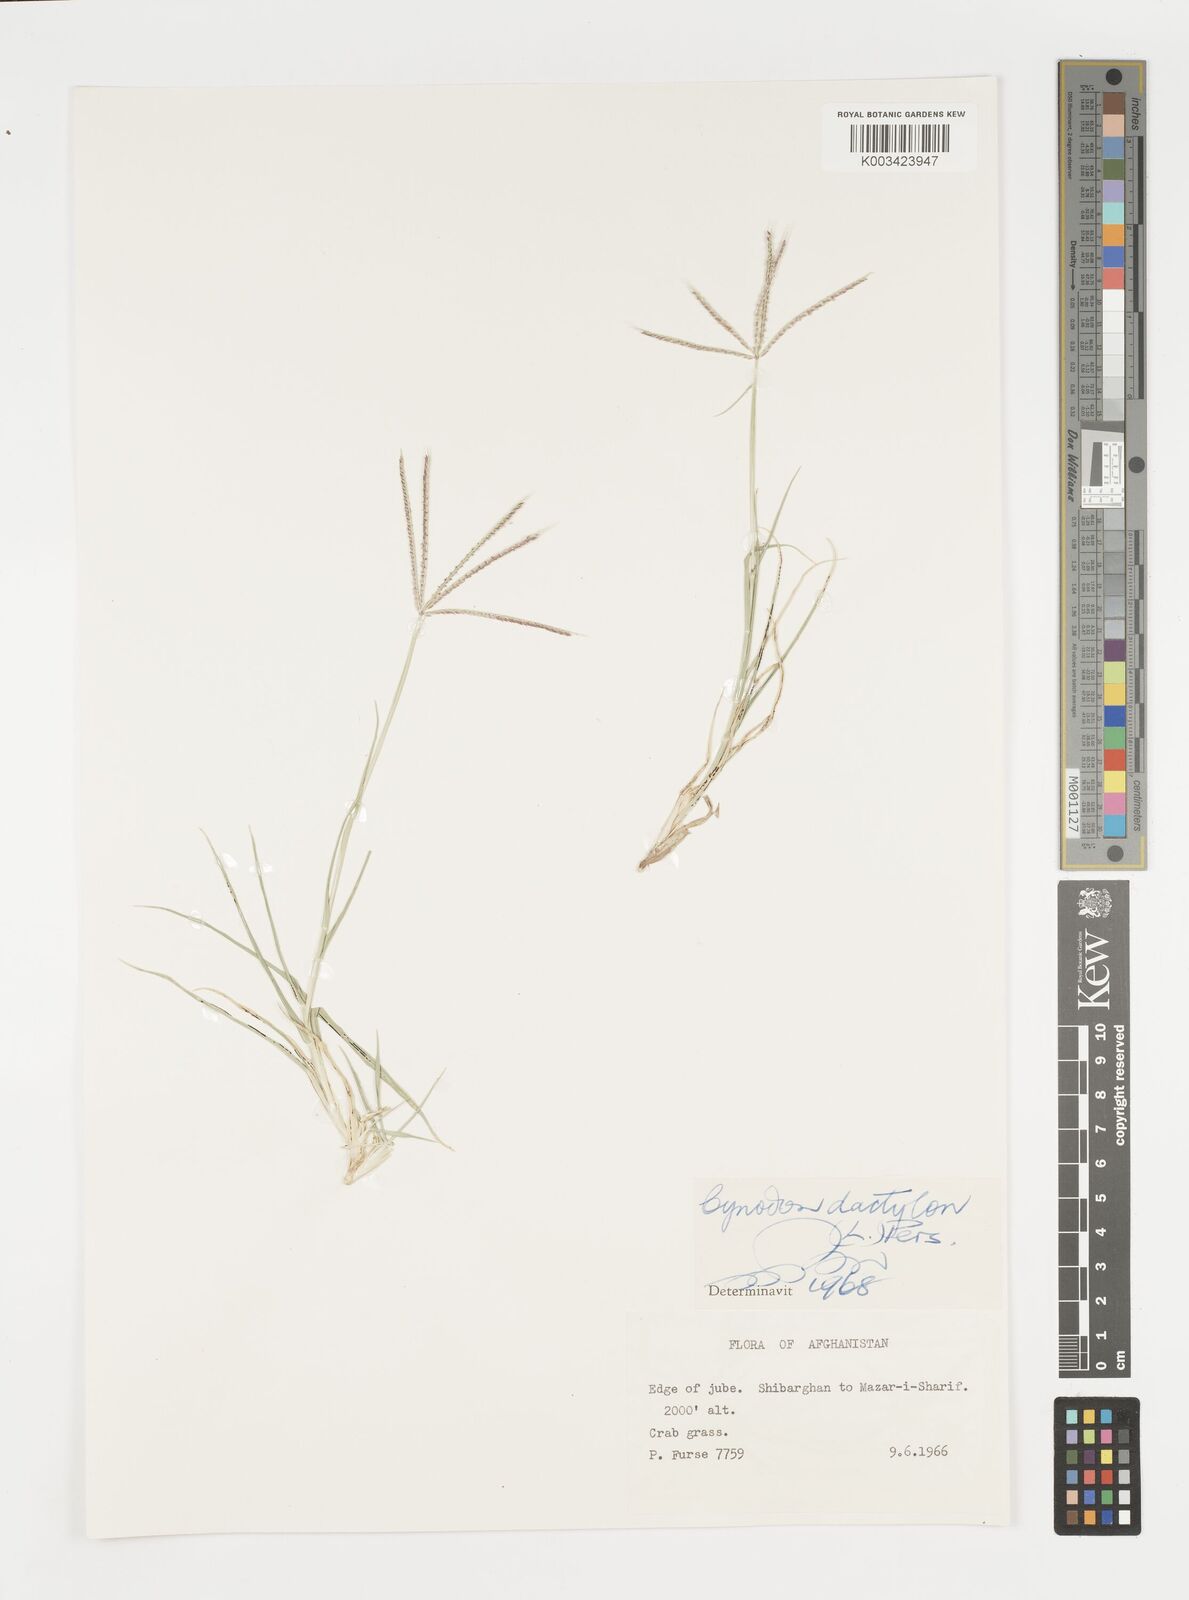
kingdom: Plantae
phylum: Tracheophyta
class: Liliopsida
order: Poales
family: Poaceae
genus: Cynodon
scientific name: Cynodon dactylon
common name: Bermuda grass
